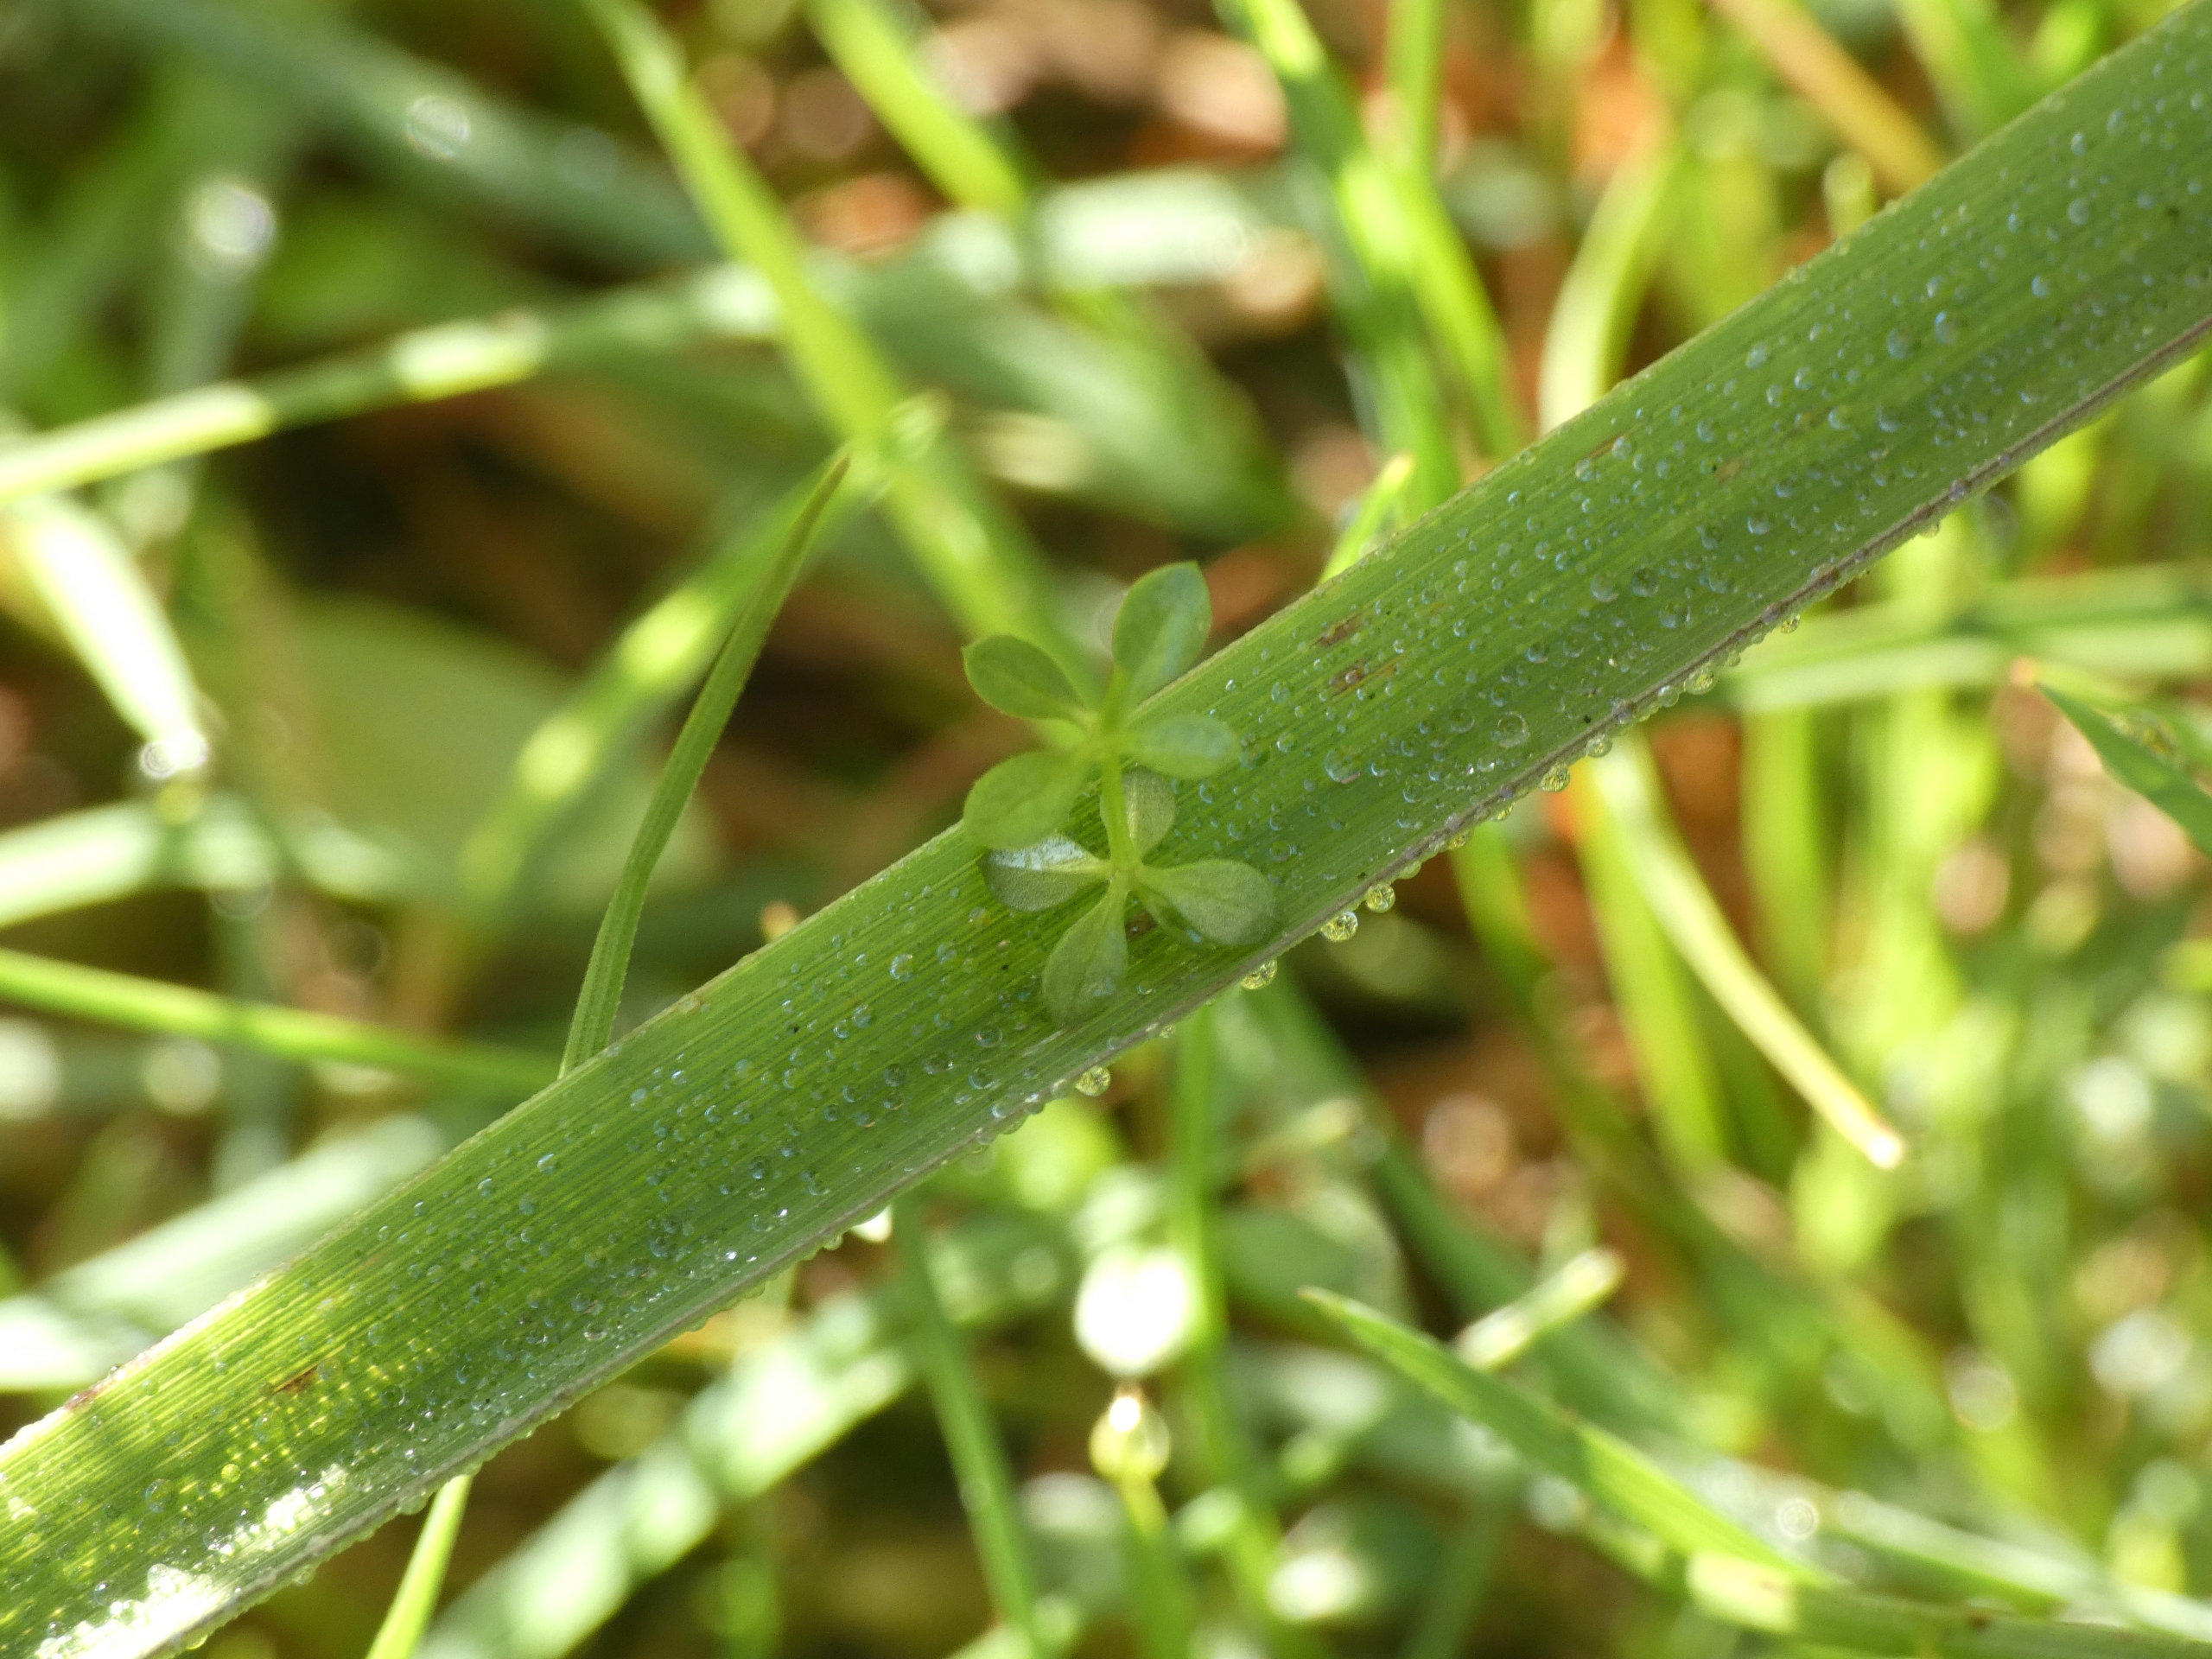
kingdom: Plantae
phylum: Tracheophyta
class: Magnoliopsida
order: Gentianales
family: Rubiaceae
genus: Galium
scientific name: Galium saxatile
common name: Lyng-snerre
